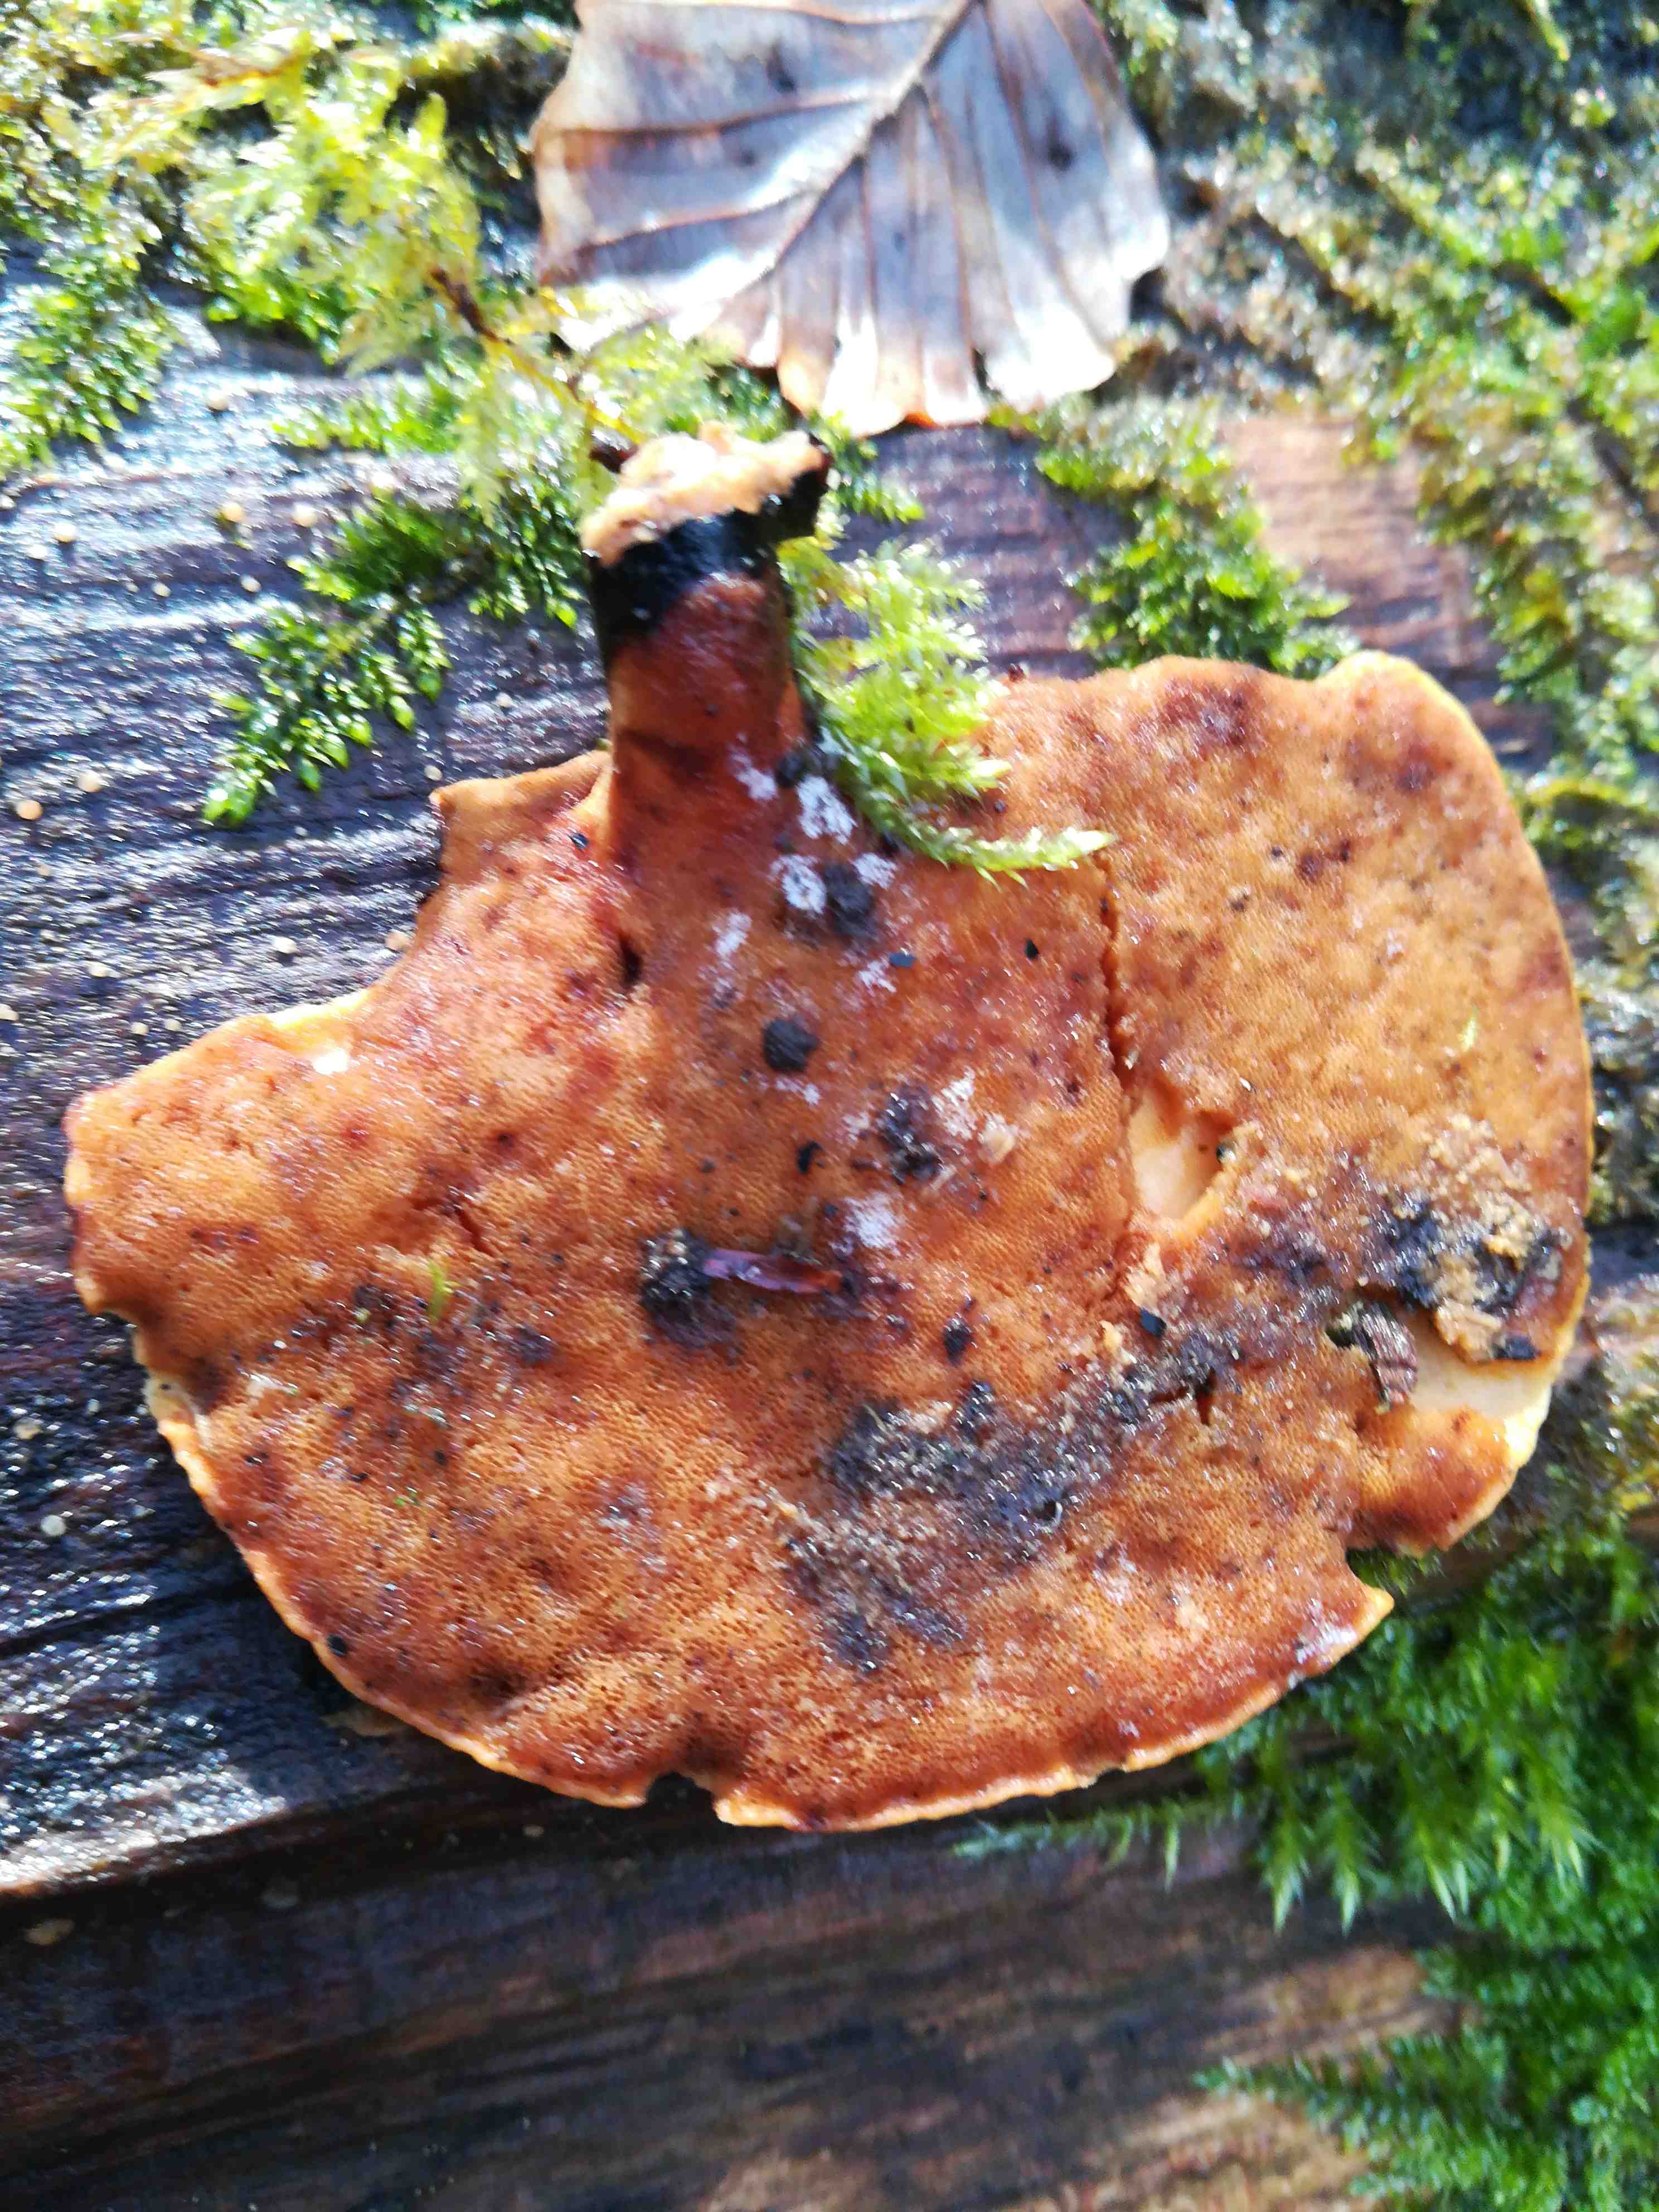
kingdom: Fungi
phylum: Basidiomycota
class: Agaricomycetes
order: Polyporales
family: Polyporaceae
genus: Cerioporus
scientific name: Cerioporus varius
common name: foranderlig stilkporesvamp
